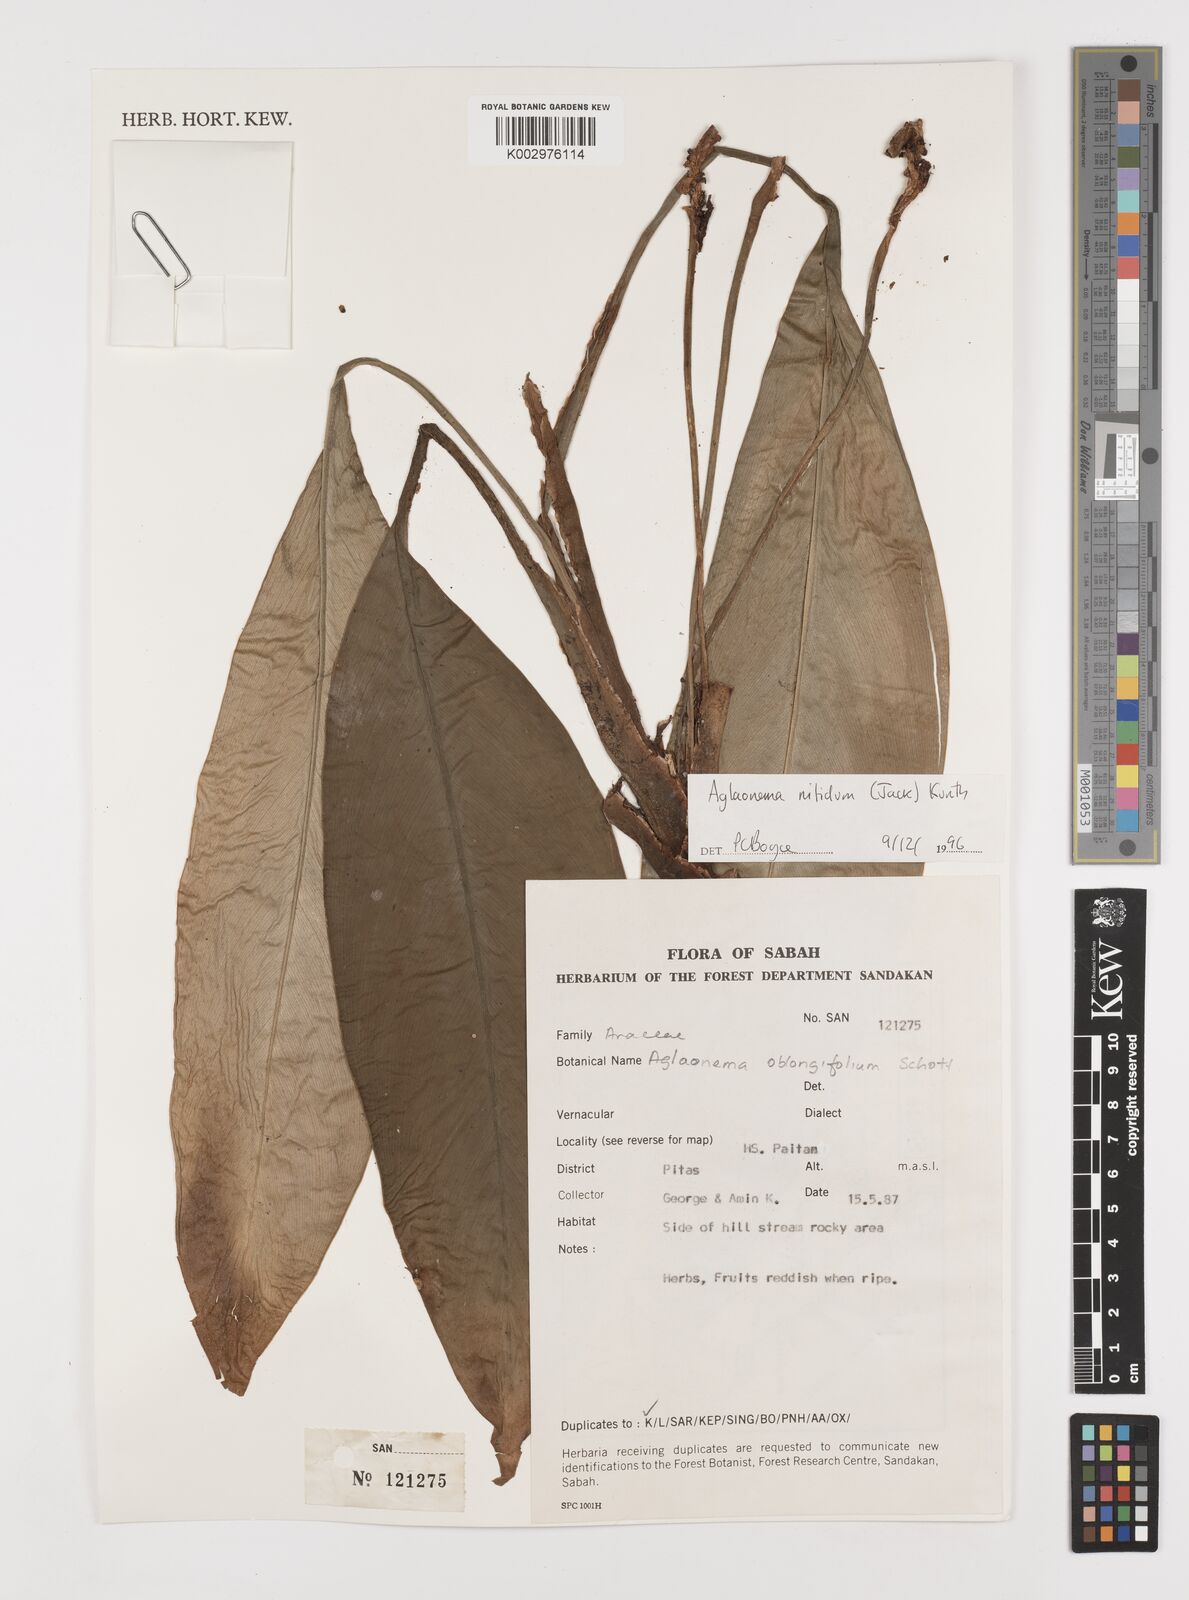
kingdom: Plantae
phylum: Tracheophyta
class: Liliopsida
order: Alismatales
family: Araceae
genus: Aglaonema
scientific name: Aglaonema nitidum
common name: Aglaonema aroid
